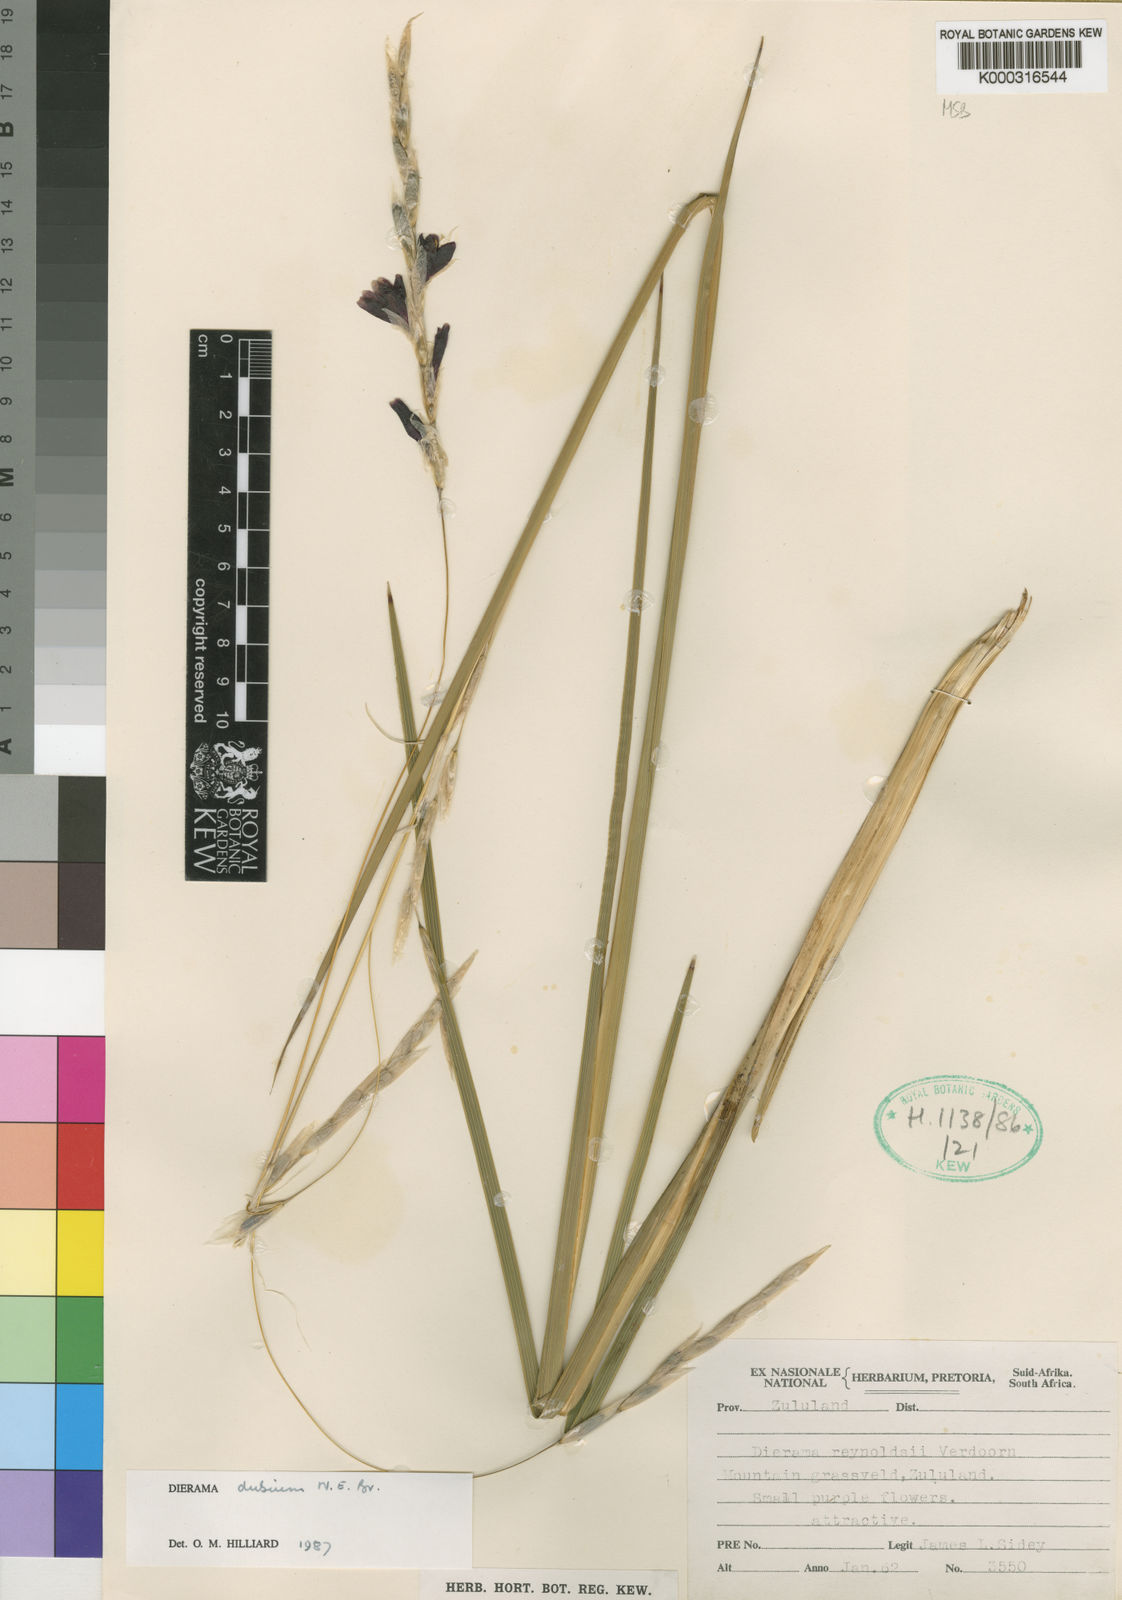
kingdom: Plantae
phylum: Tracheophyta
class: Liliopsida
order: Asparagales
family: Iridaceae
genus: Dierama
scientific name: Dierama dubium
